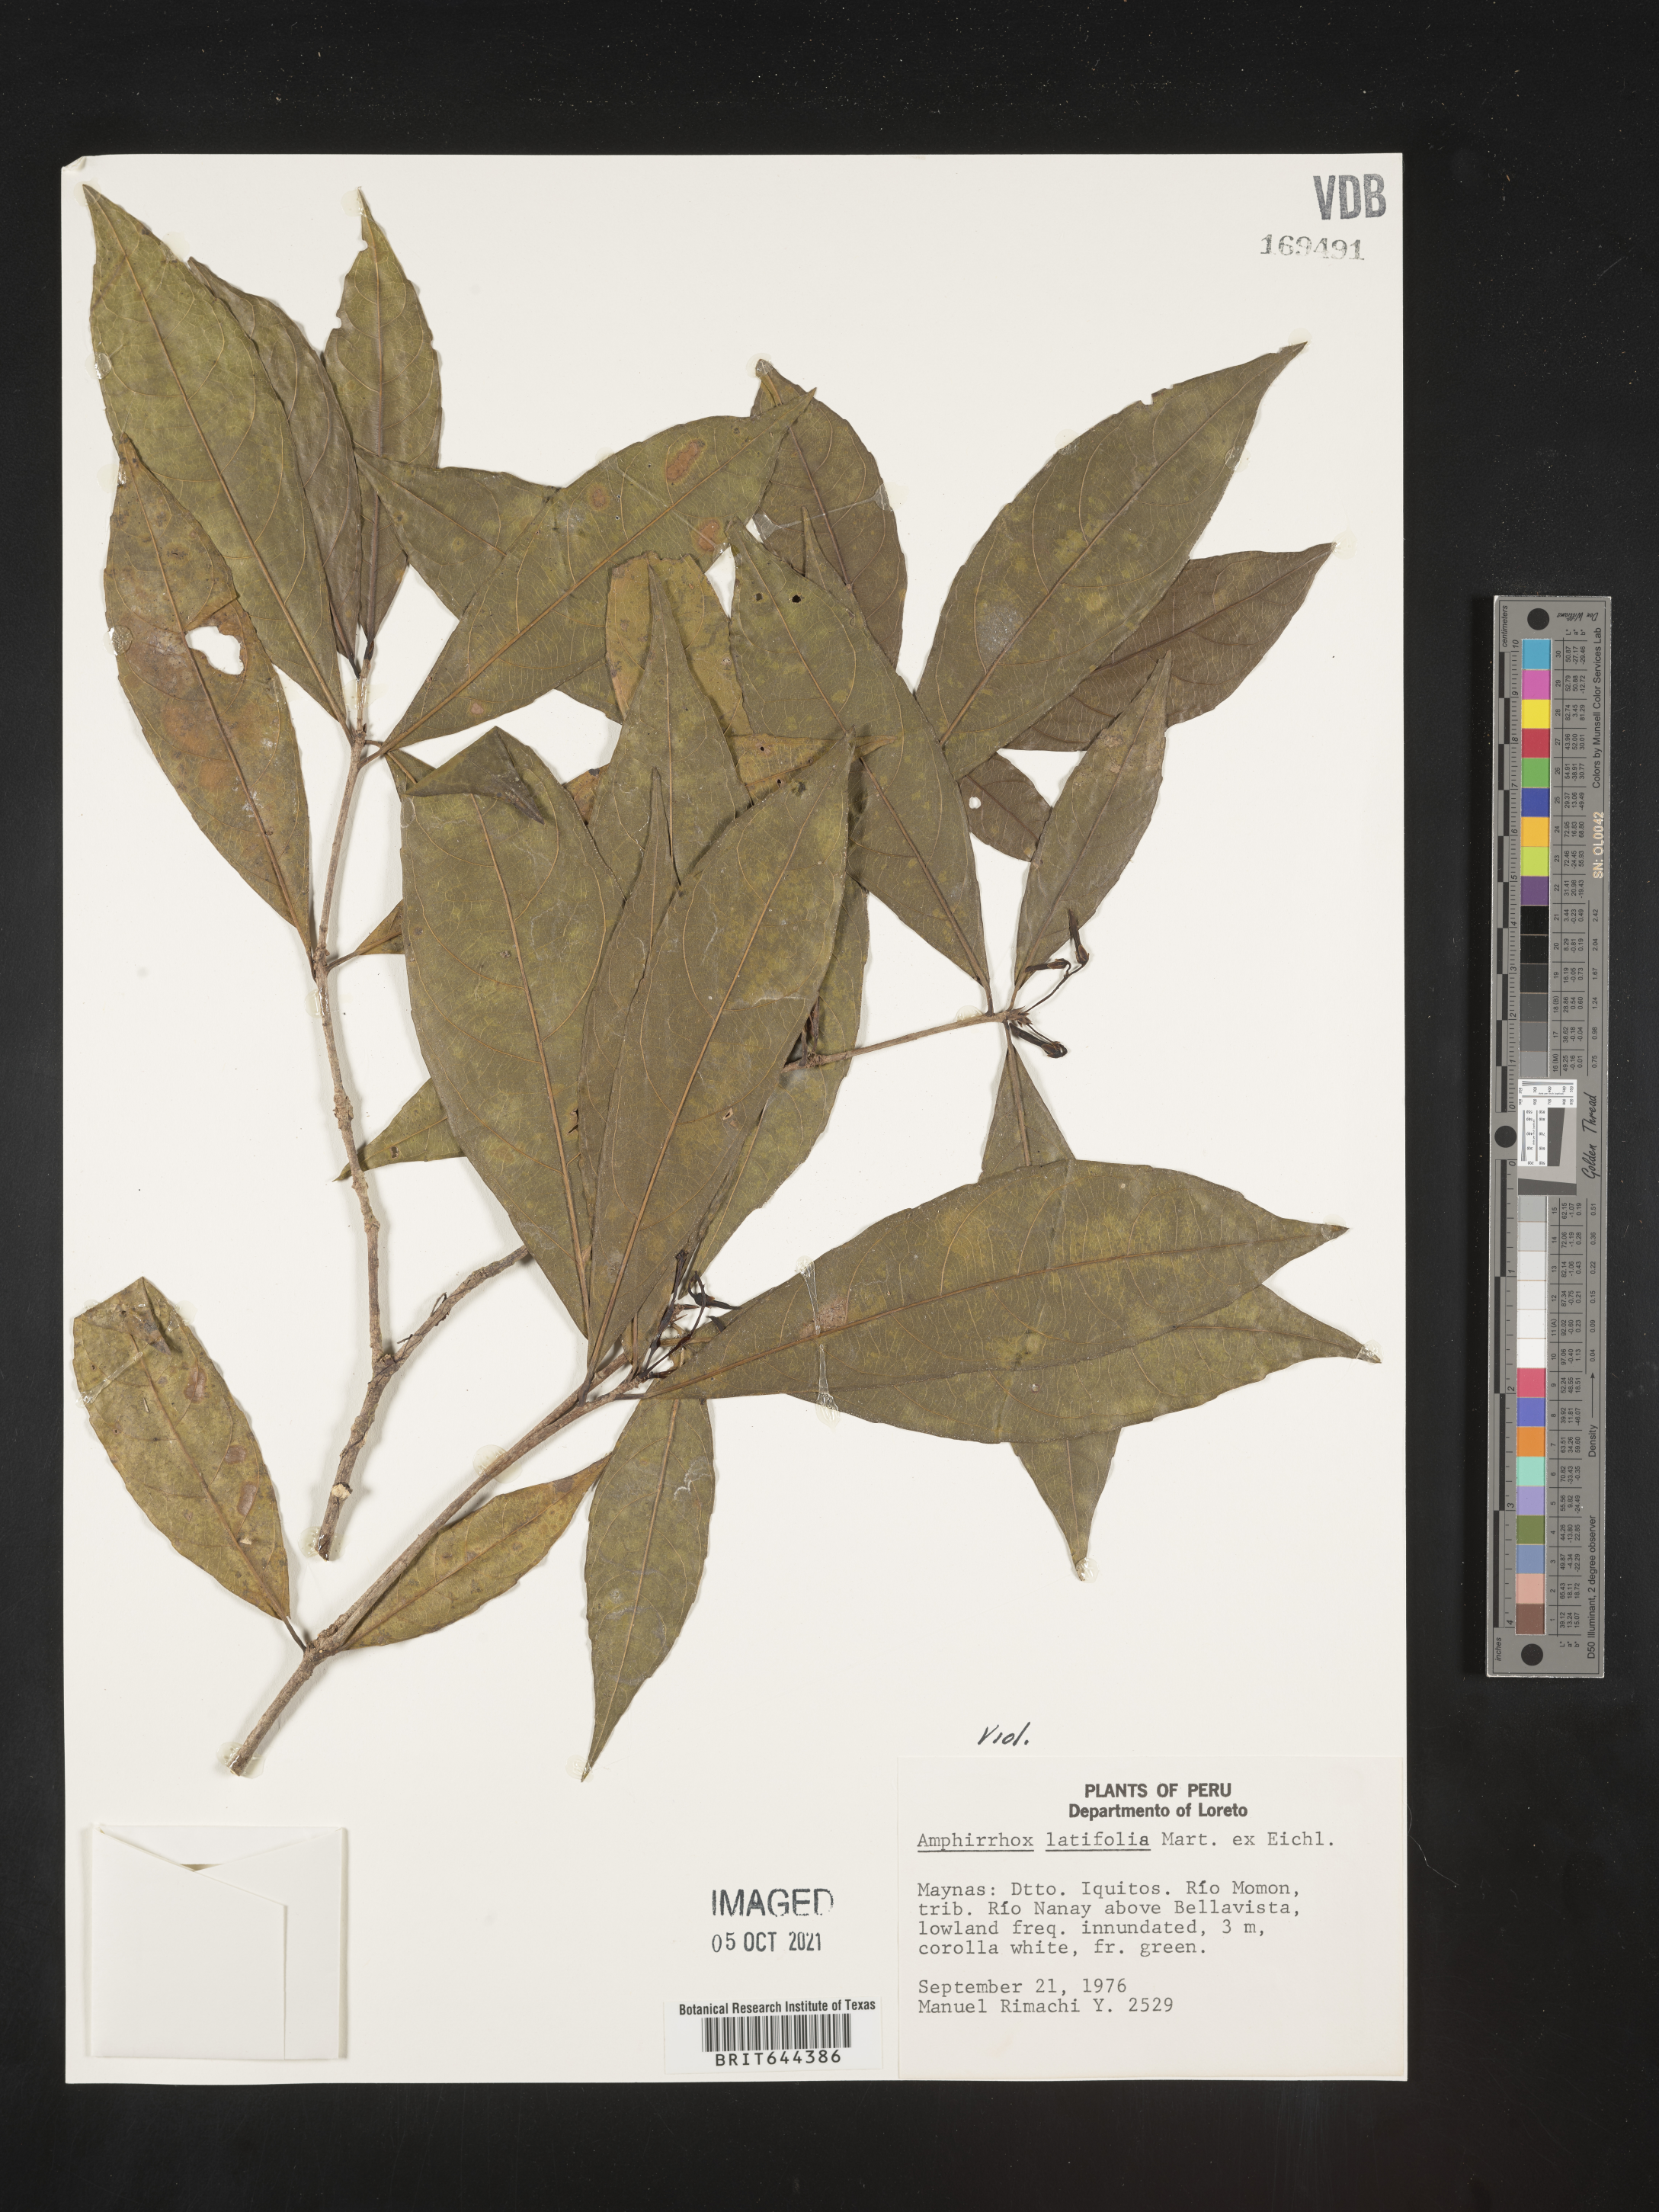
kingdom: Plantae
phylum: Tracheophyta
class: Magnoliopsida
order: Malpighiales
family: Violaceae
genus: Amphirrhox
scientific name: Amphirrhox
